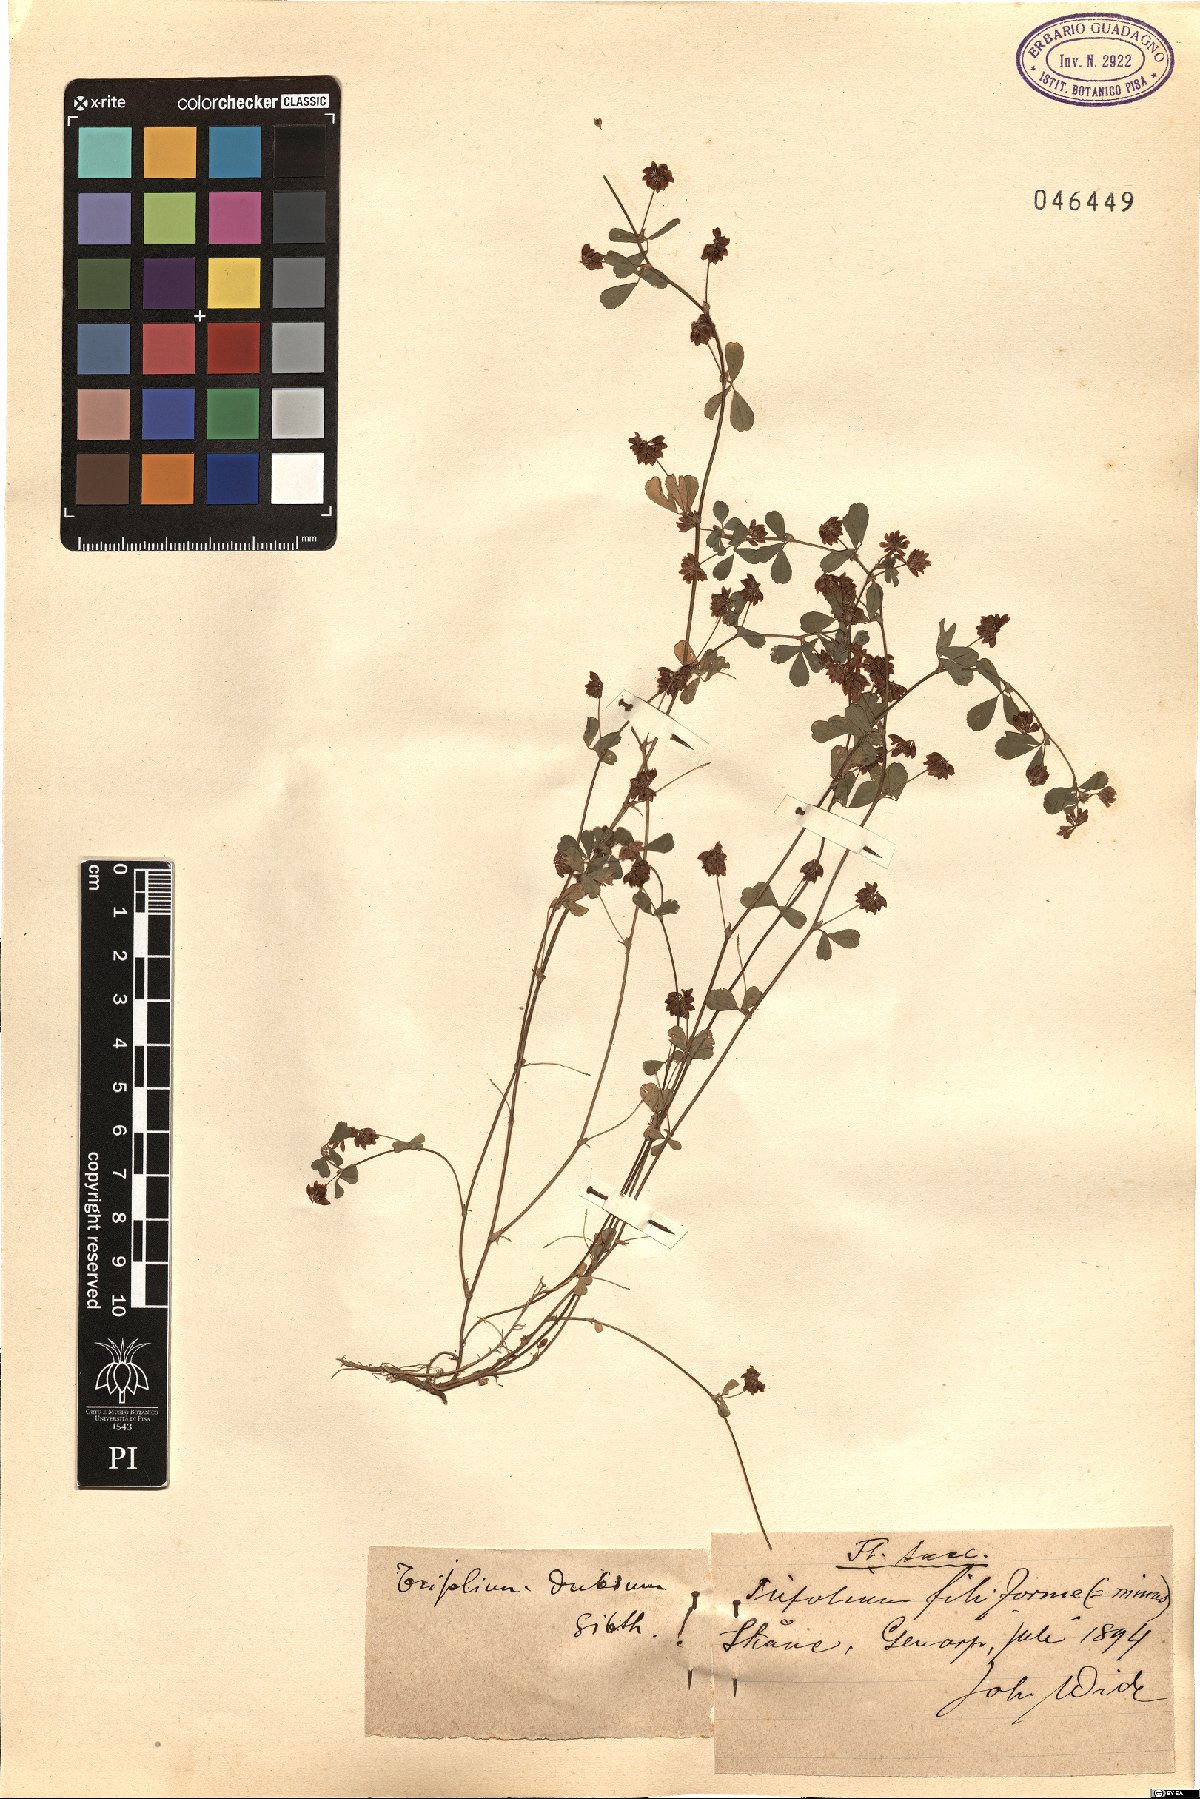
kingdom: Plantae
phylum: Tracheophyta
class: Magnoliopsida
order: Fabales
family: Fabaceae
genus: Trifolium
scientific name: Trifolium dubium
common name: Suckling clover
